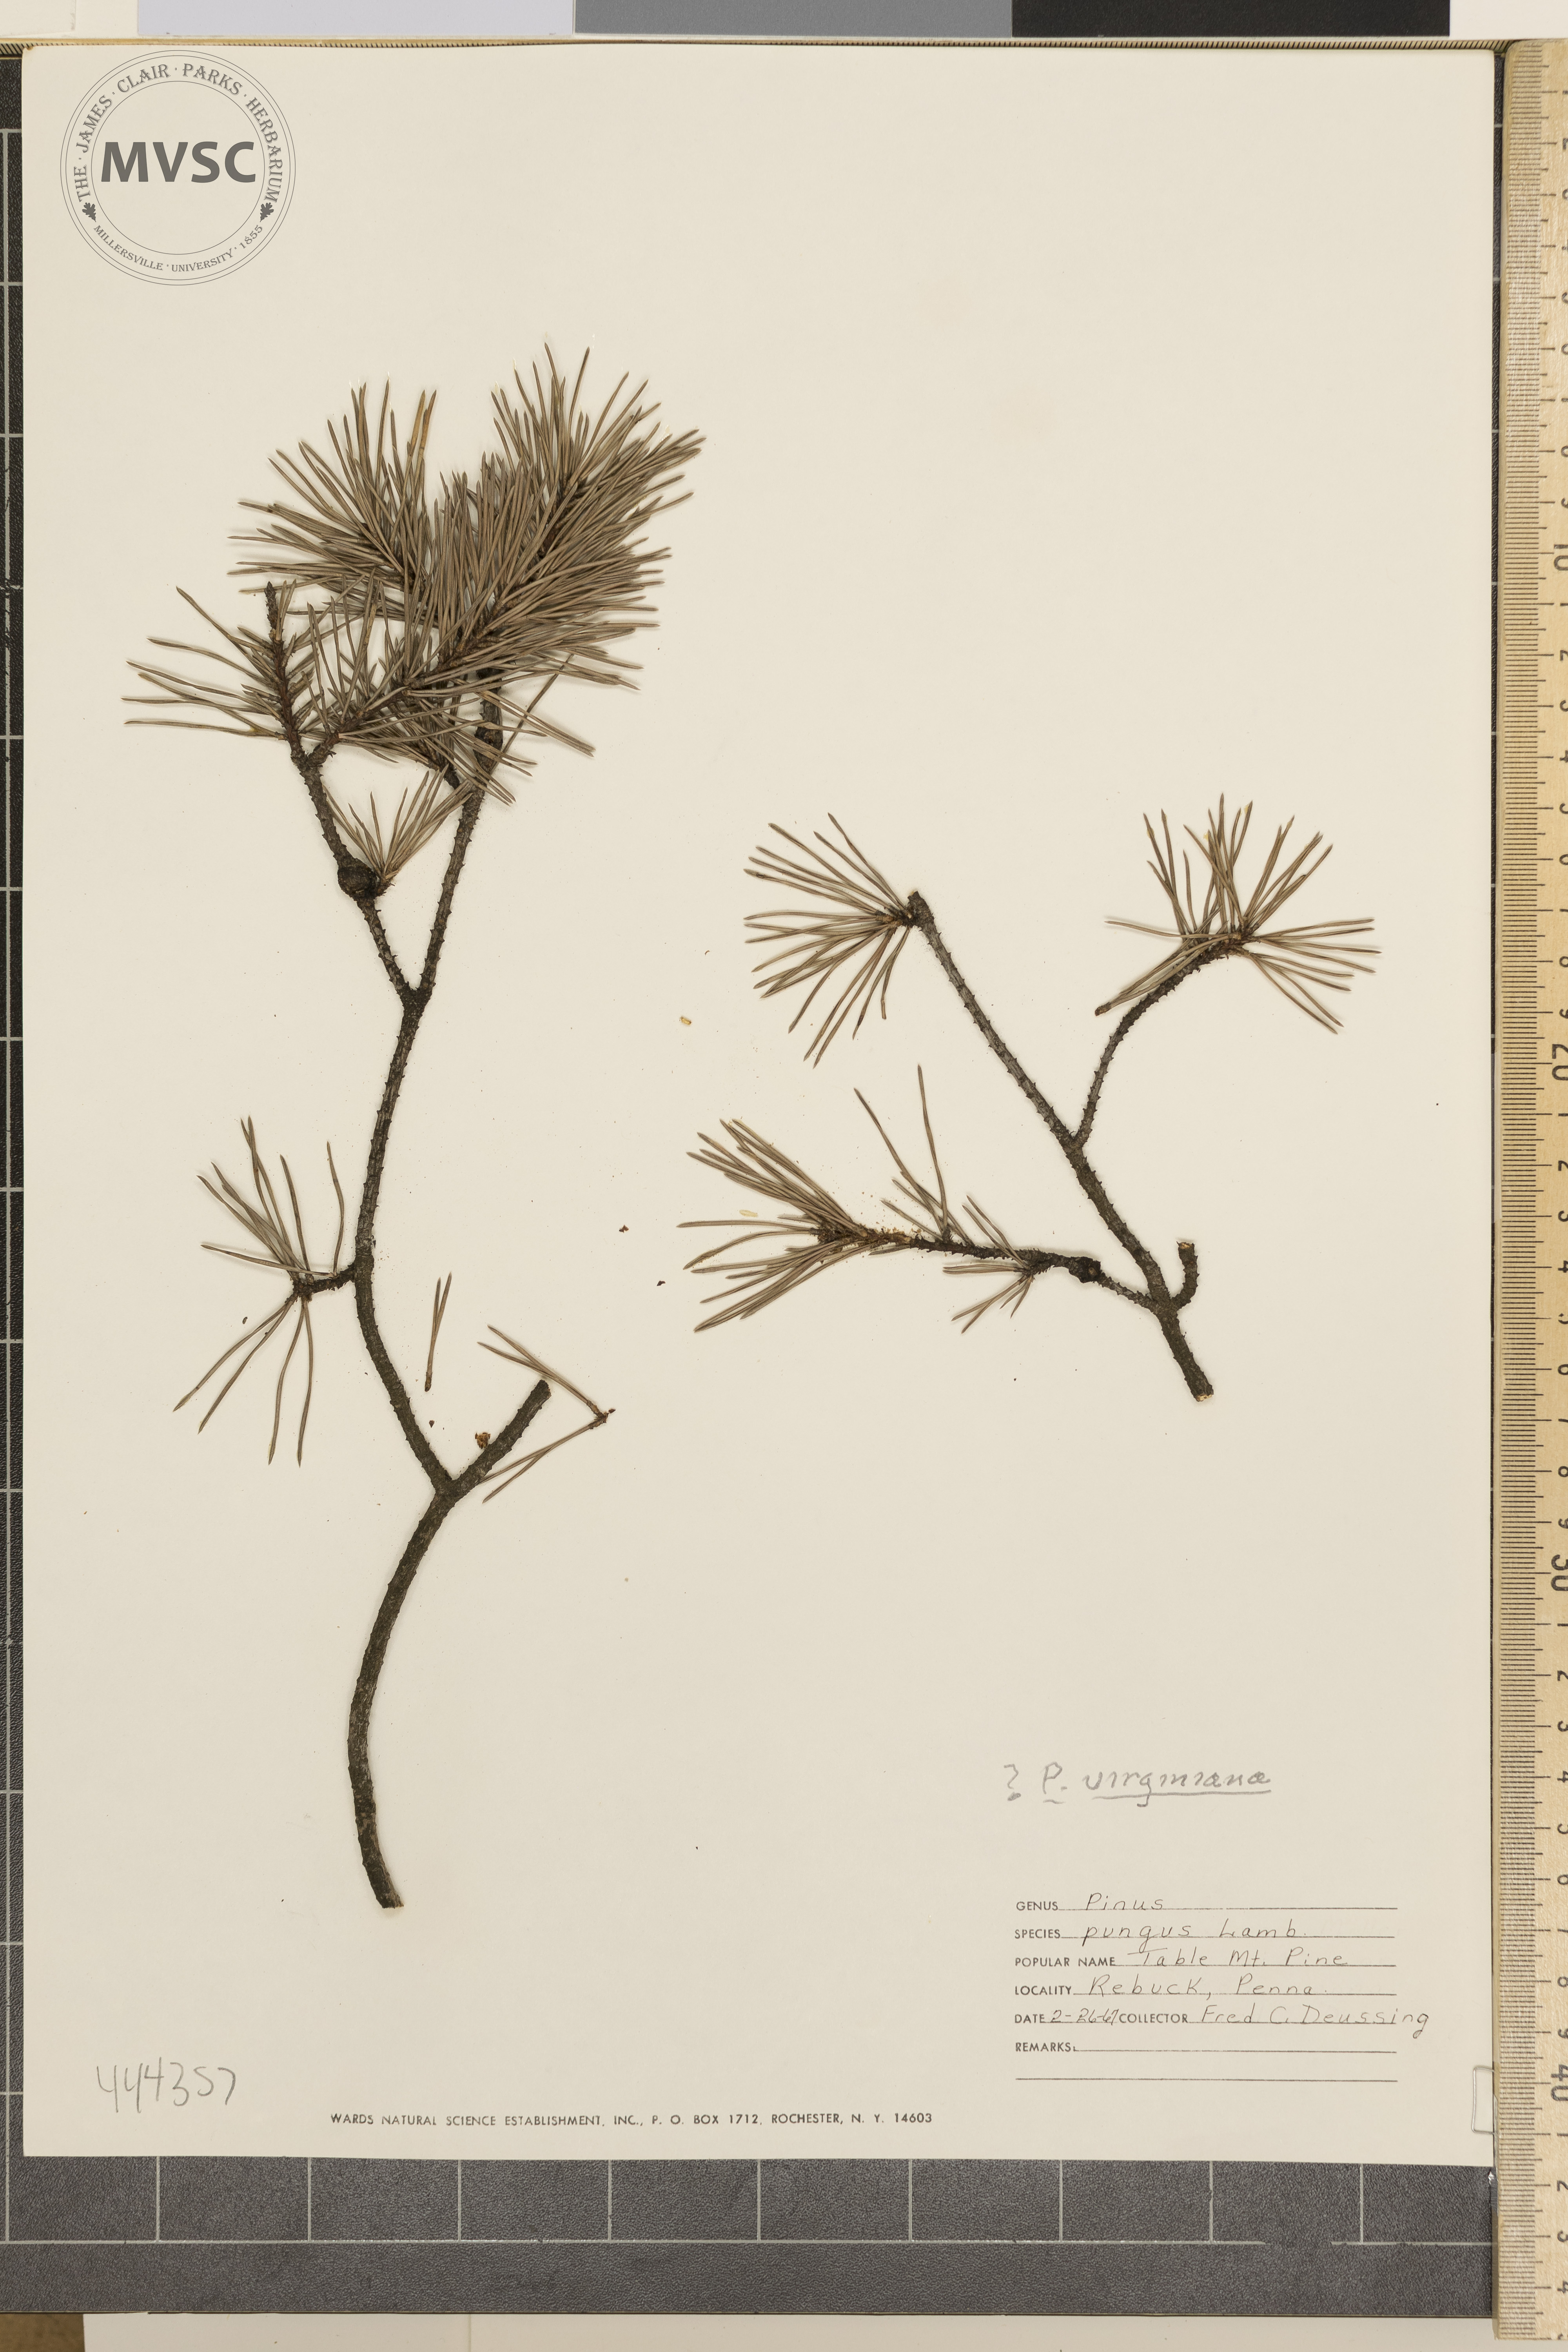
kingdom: Plantae
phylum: Tracheophyta
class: Pinopsida
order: Pinales
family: Pinaceae
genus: Pinus
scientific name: Pinus virginiana
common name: Scrub pine
